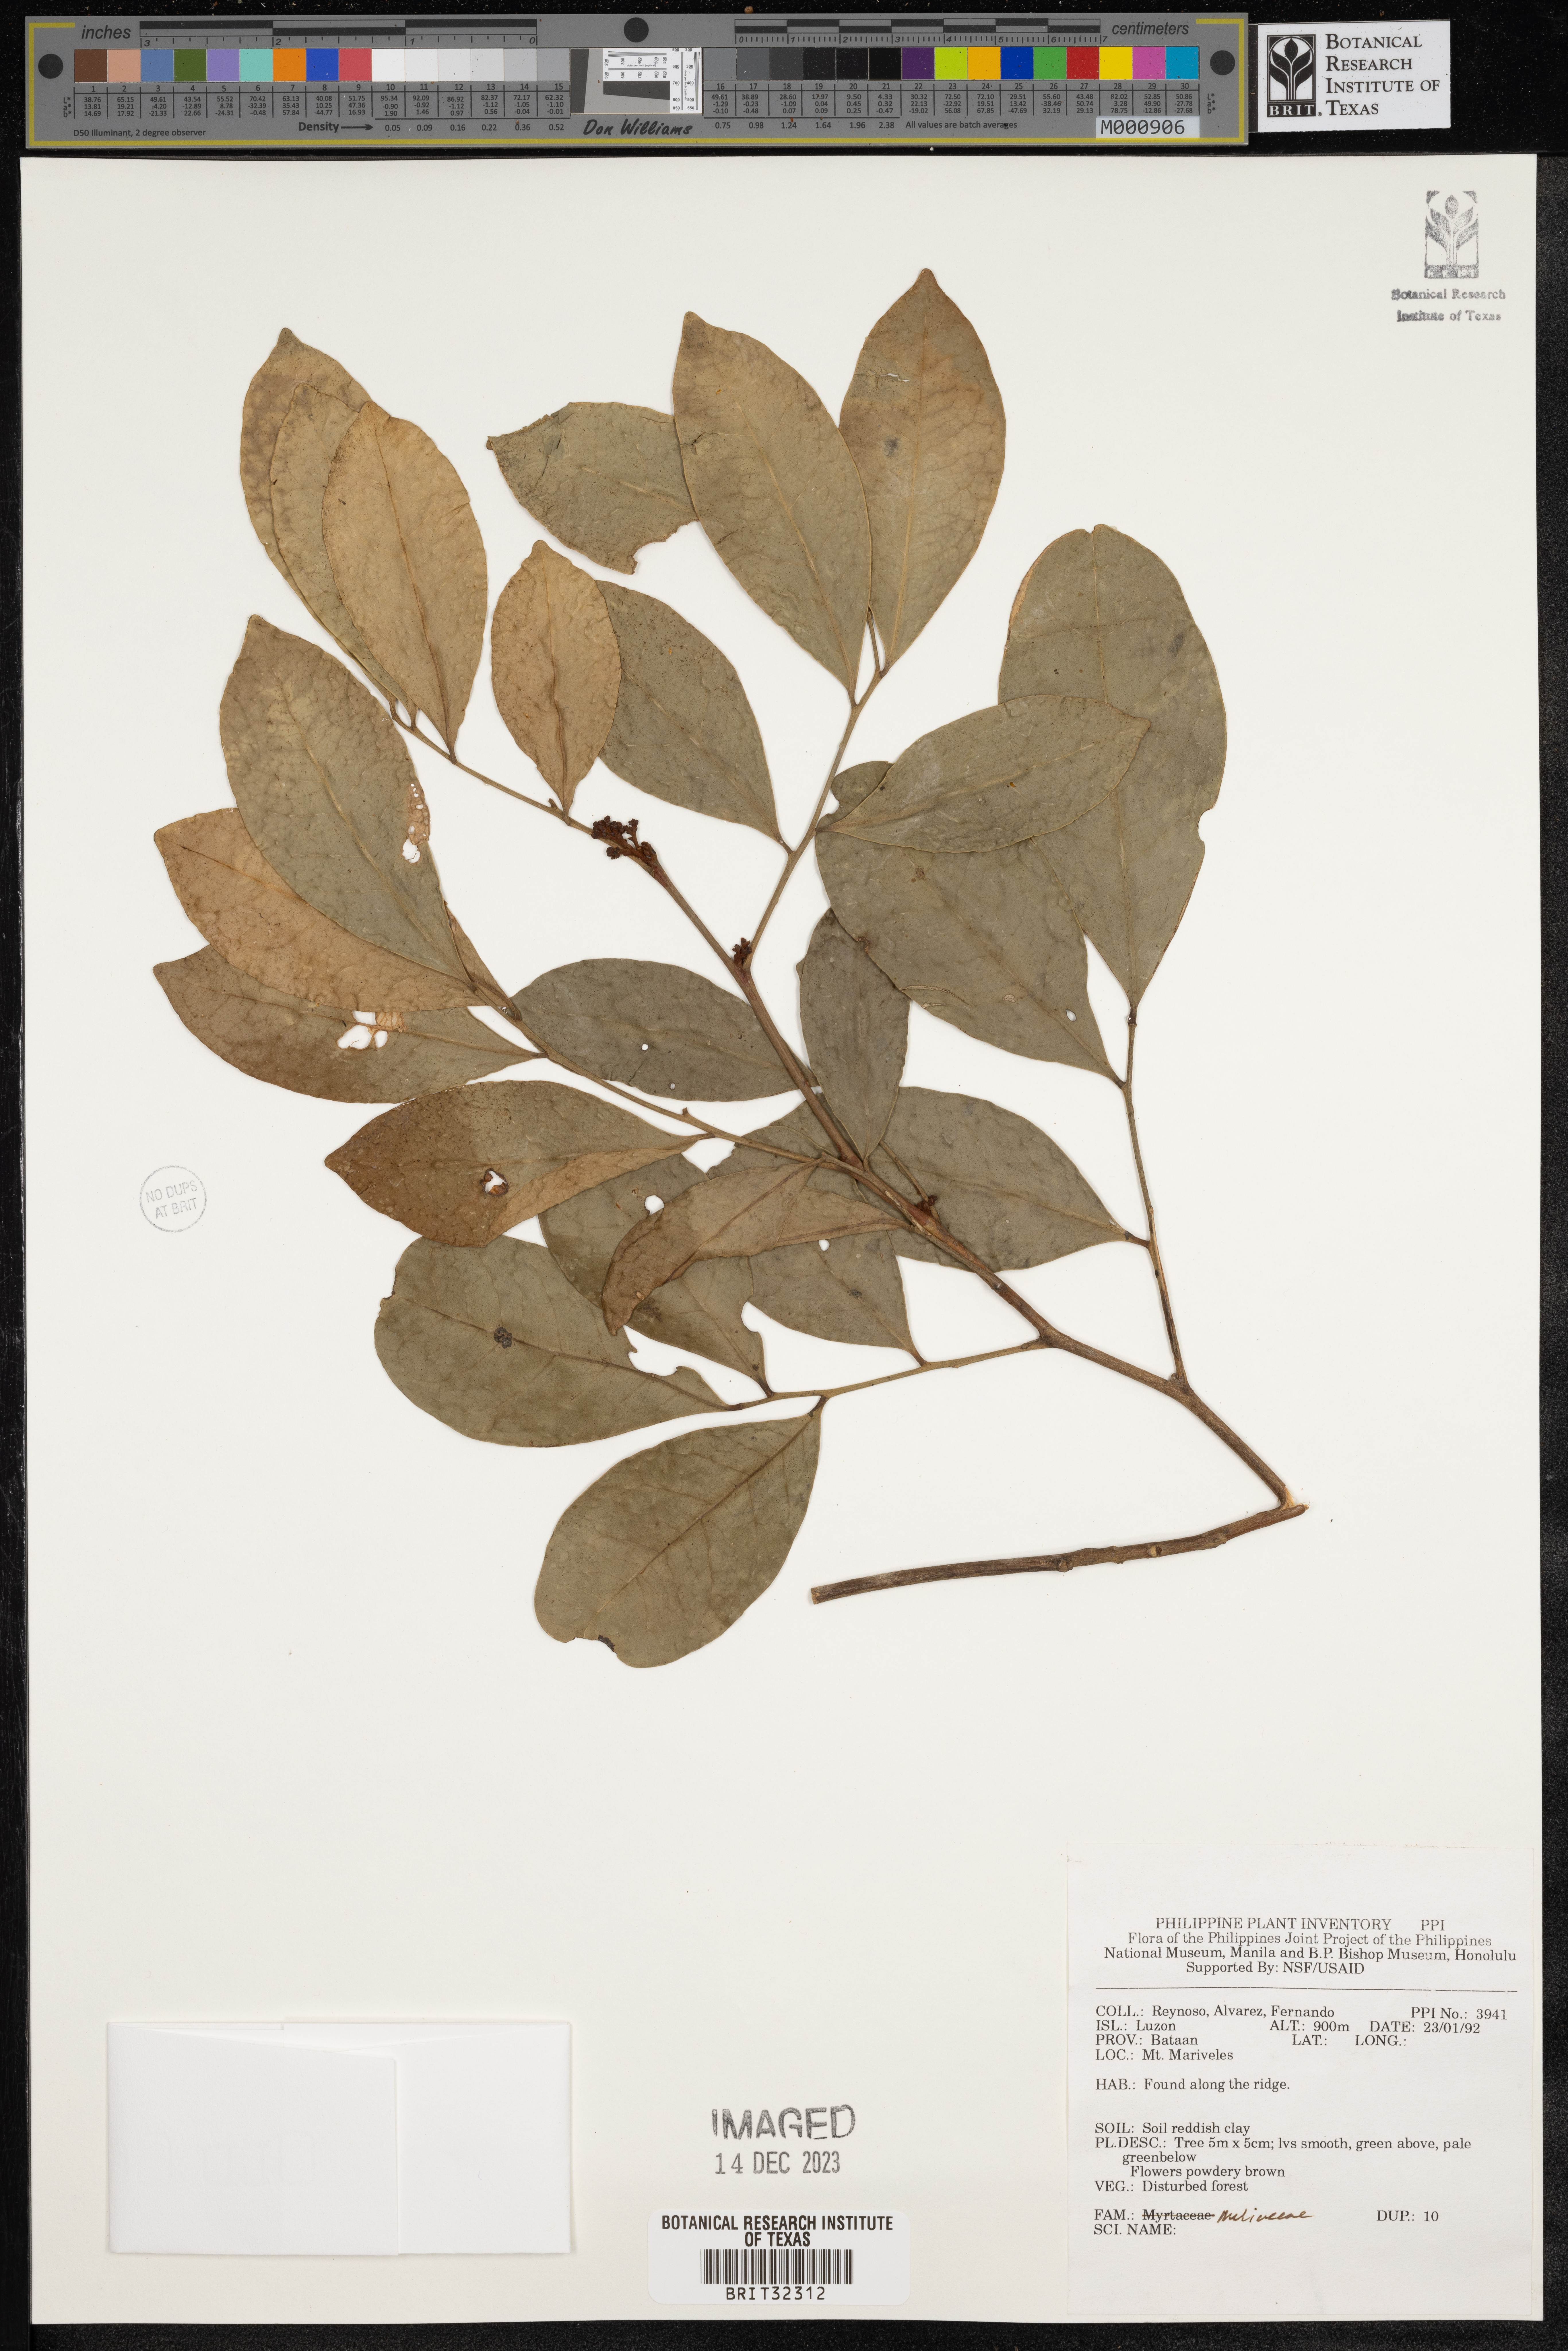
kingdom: Plantae
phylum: Tracheophyta
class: Magnoliopsida
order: Sapindales
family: Meliaceae
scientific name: Meliaceae
